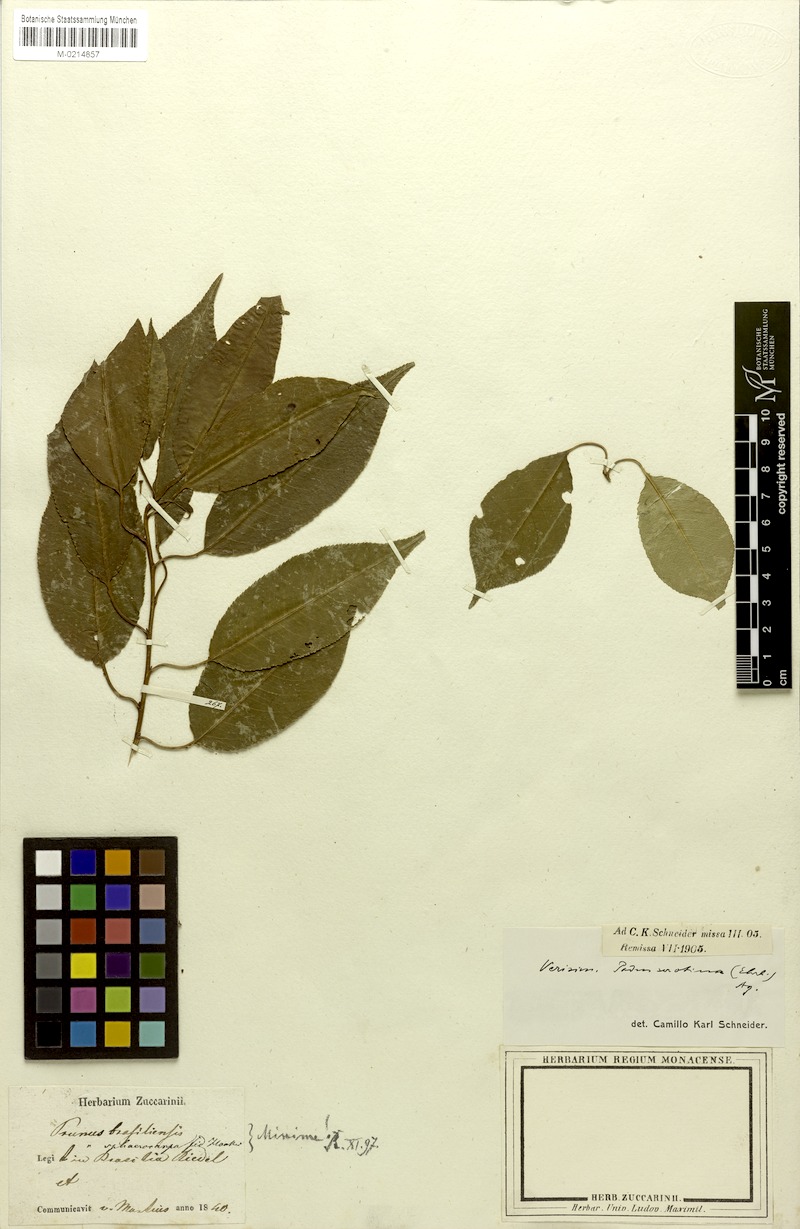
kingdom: Plantae
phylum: Tracheophyta
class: Magnoliopsida
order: Rosales
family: Rosaceae
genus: Prunus
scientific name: Prunus serotina
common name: Black cherry
